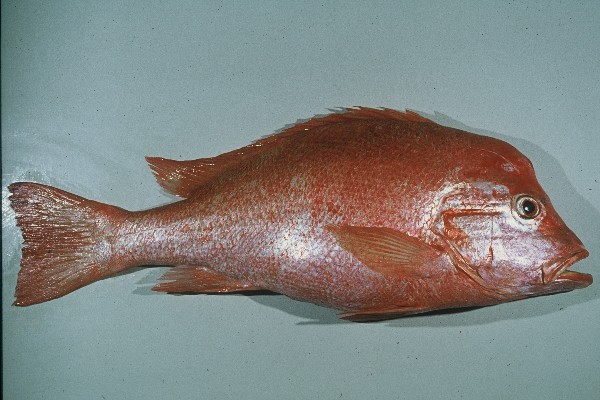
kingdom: Animalia
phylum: Chordata
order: Perciformes
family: Lutjanidae
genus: Lutjanus
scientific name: Lutjanus sanguineus
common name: Humphead snapper
